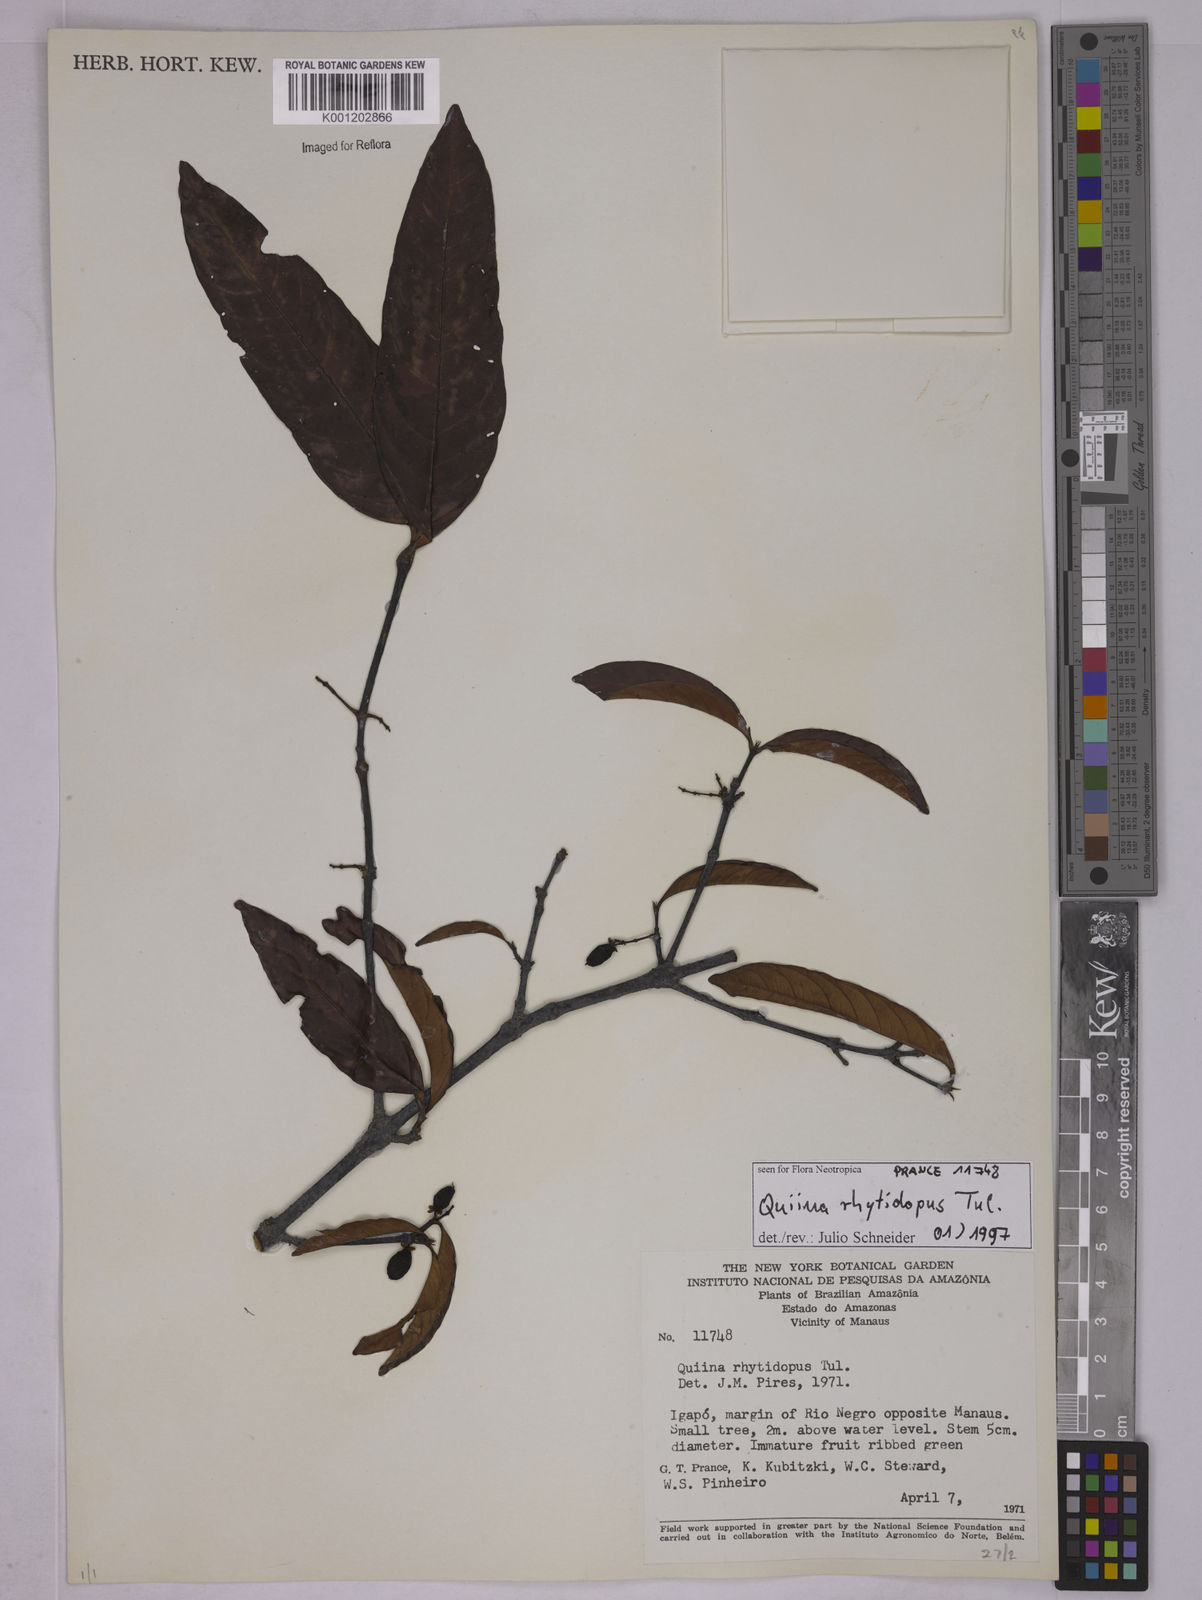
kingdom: Plantae
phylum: Tracheophyta
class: Magnoliopsida
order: Malpighiales
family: Quiinaceae
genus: Quiina
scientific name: Quiina rhytidopus
